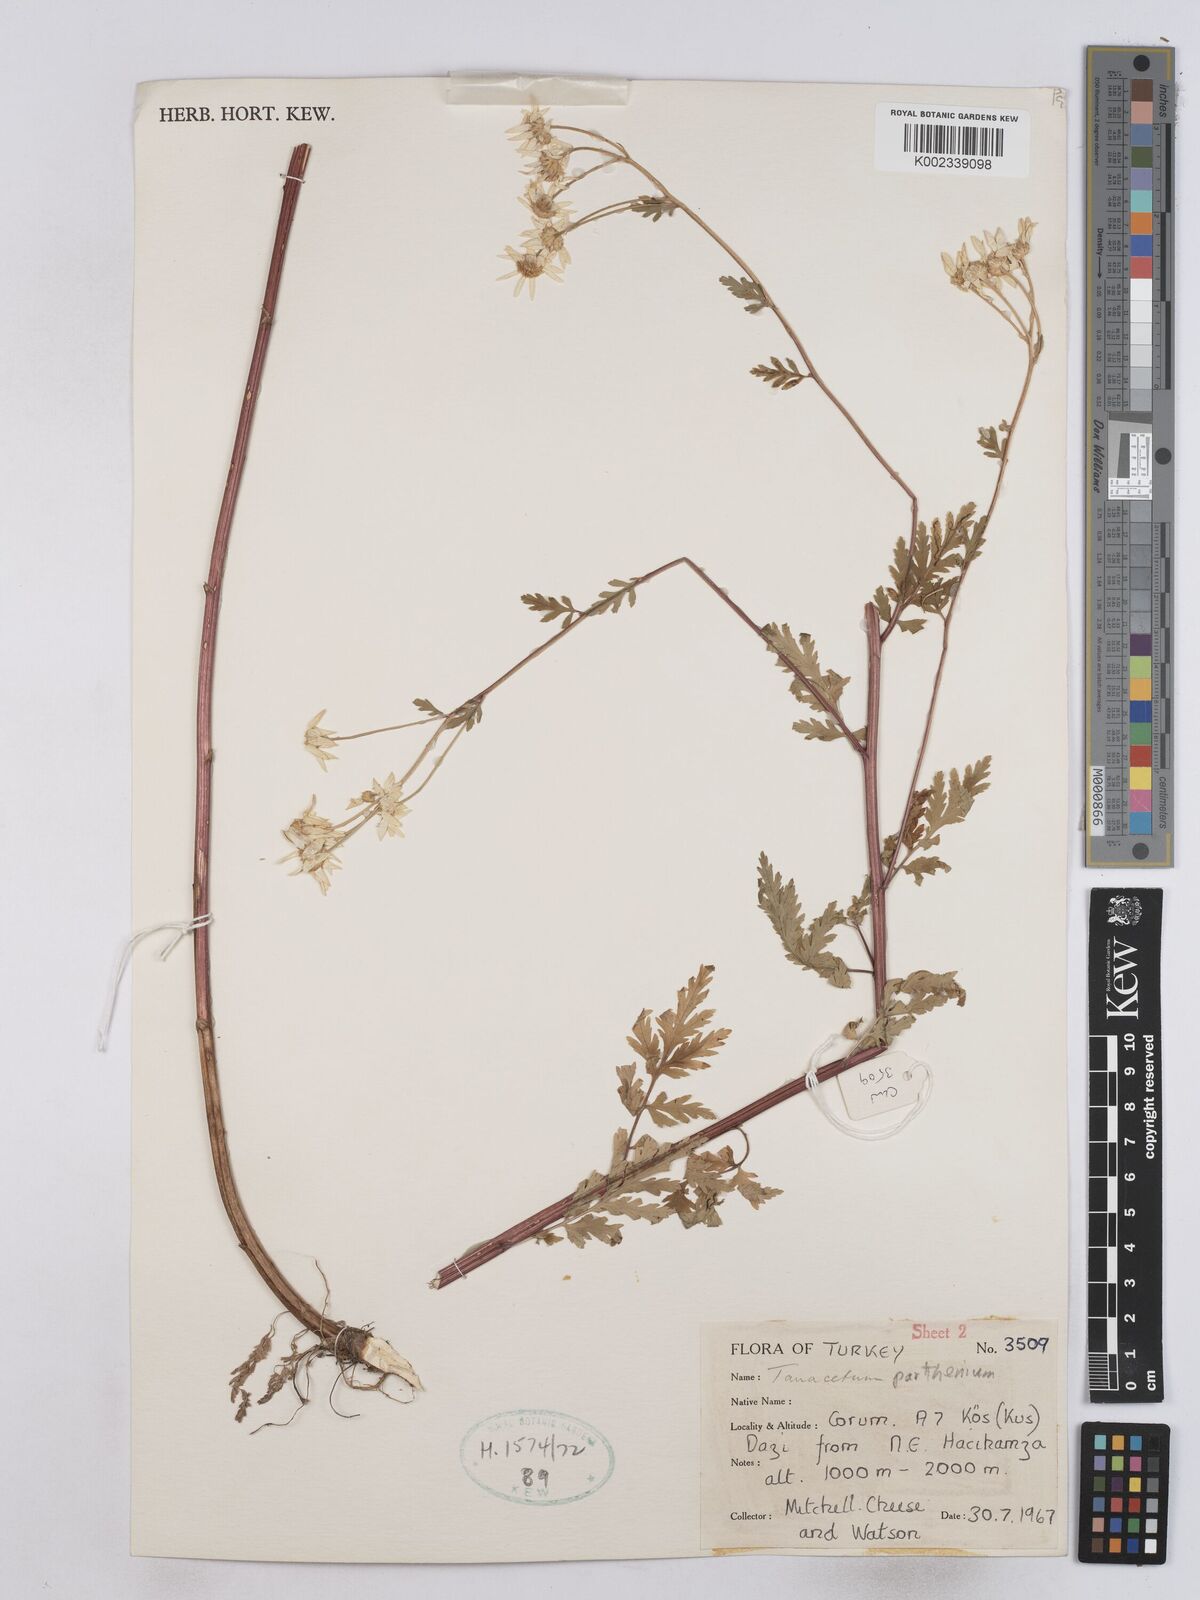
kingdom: Plantae
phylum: Tracheophyta
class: Magnoliopsida
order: Asterales
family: Asteraceae
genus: Tanacetum
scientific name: Tanacetum parthenium
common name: Feverfew
